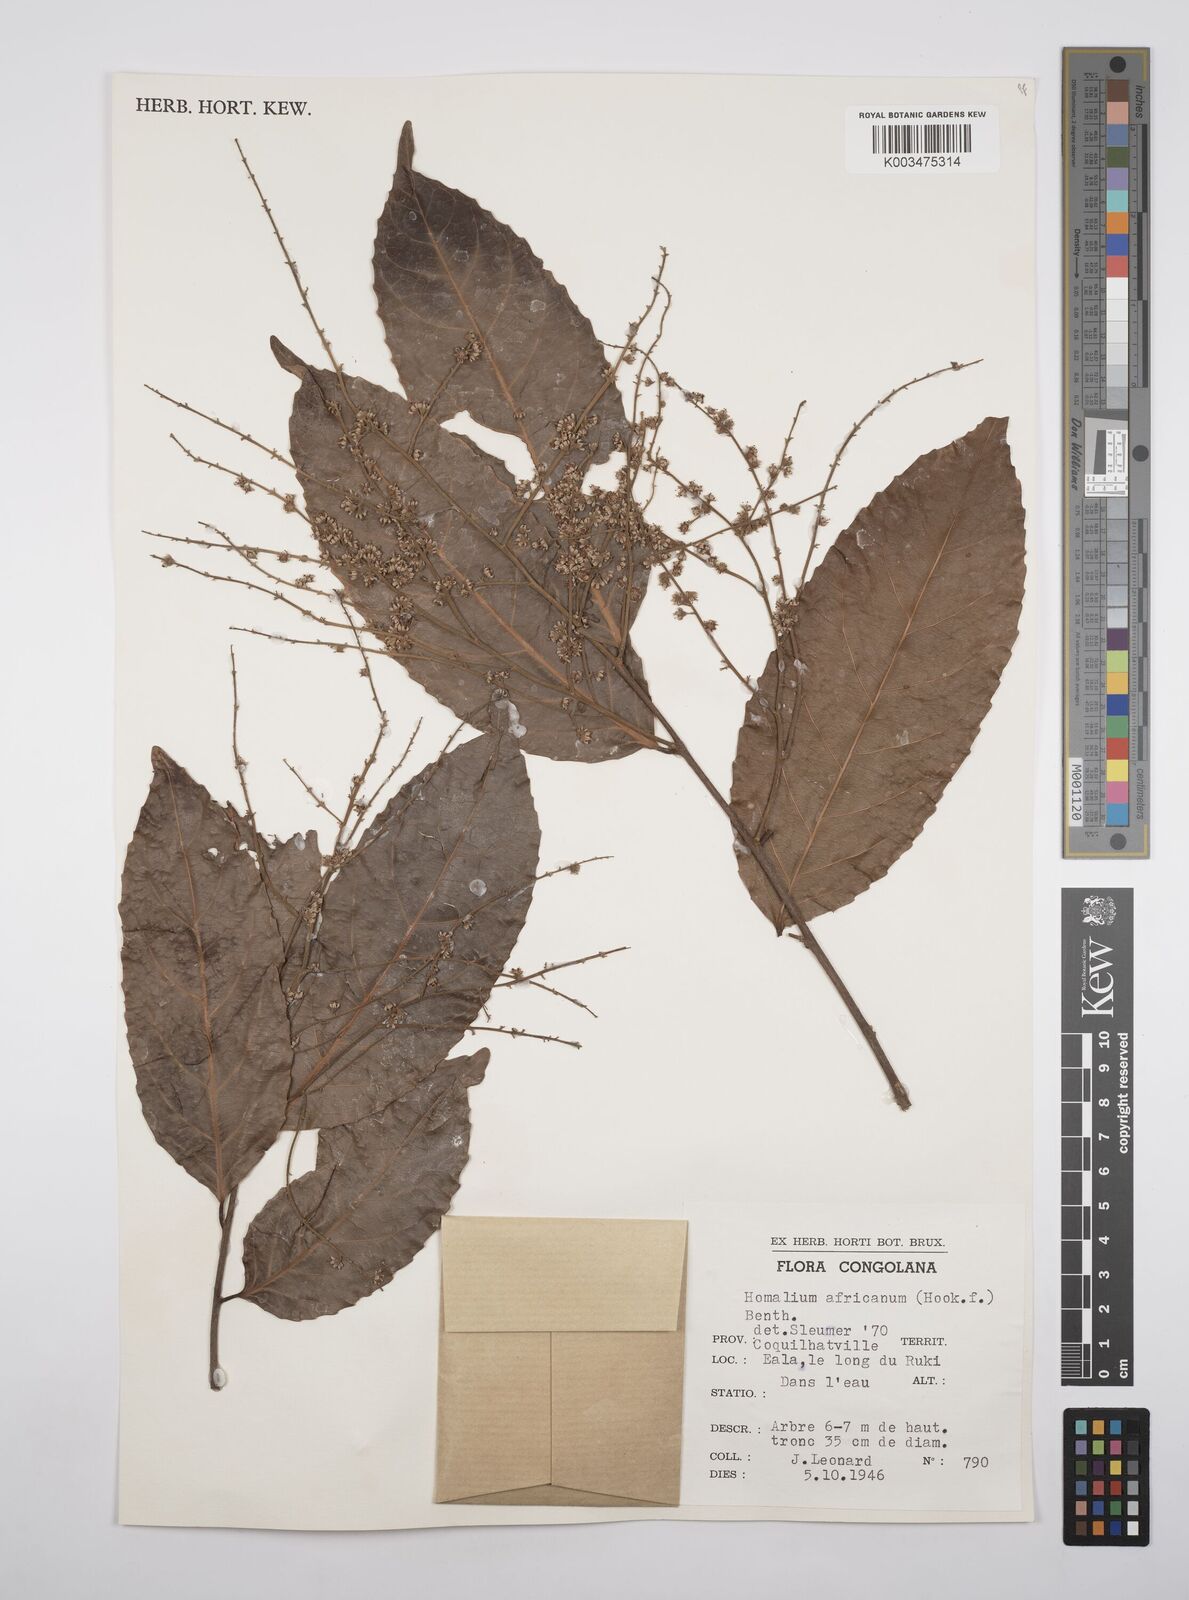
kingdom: Plantae
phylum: Tracheophyta
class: Magnoliopsida
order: Malpighiales
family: Salicaceae
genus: Homalium
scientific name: Homalium africanum
